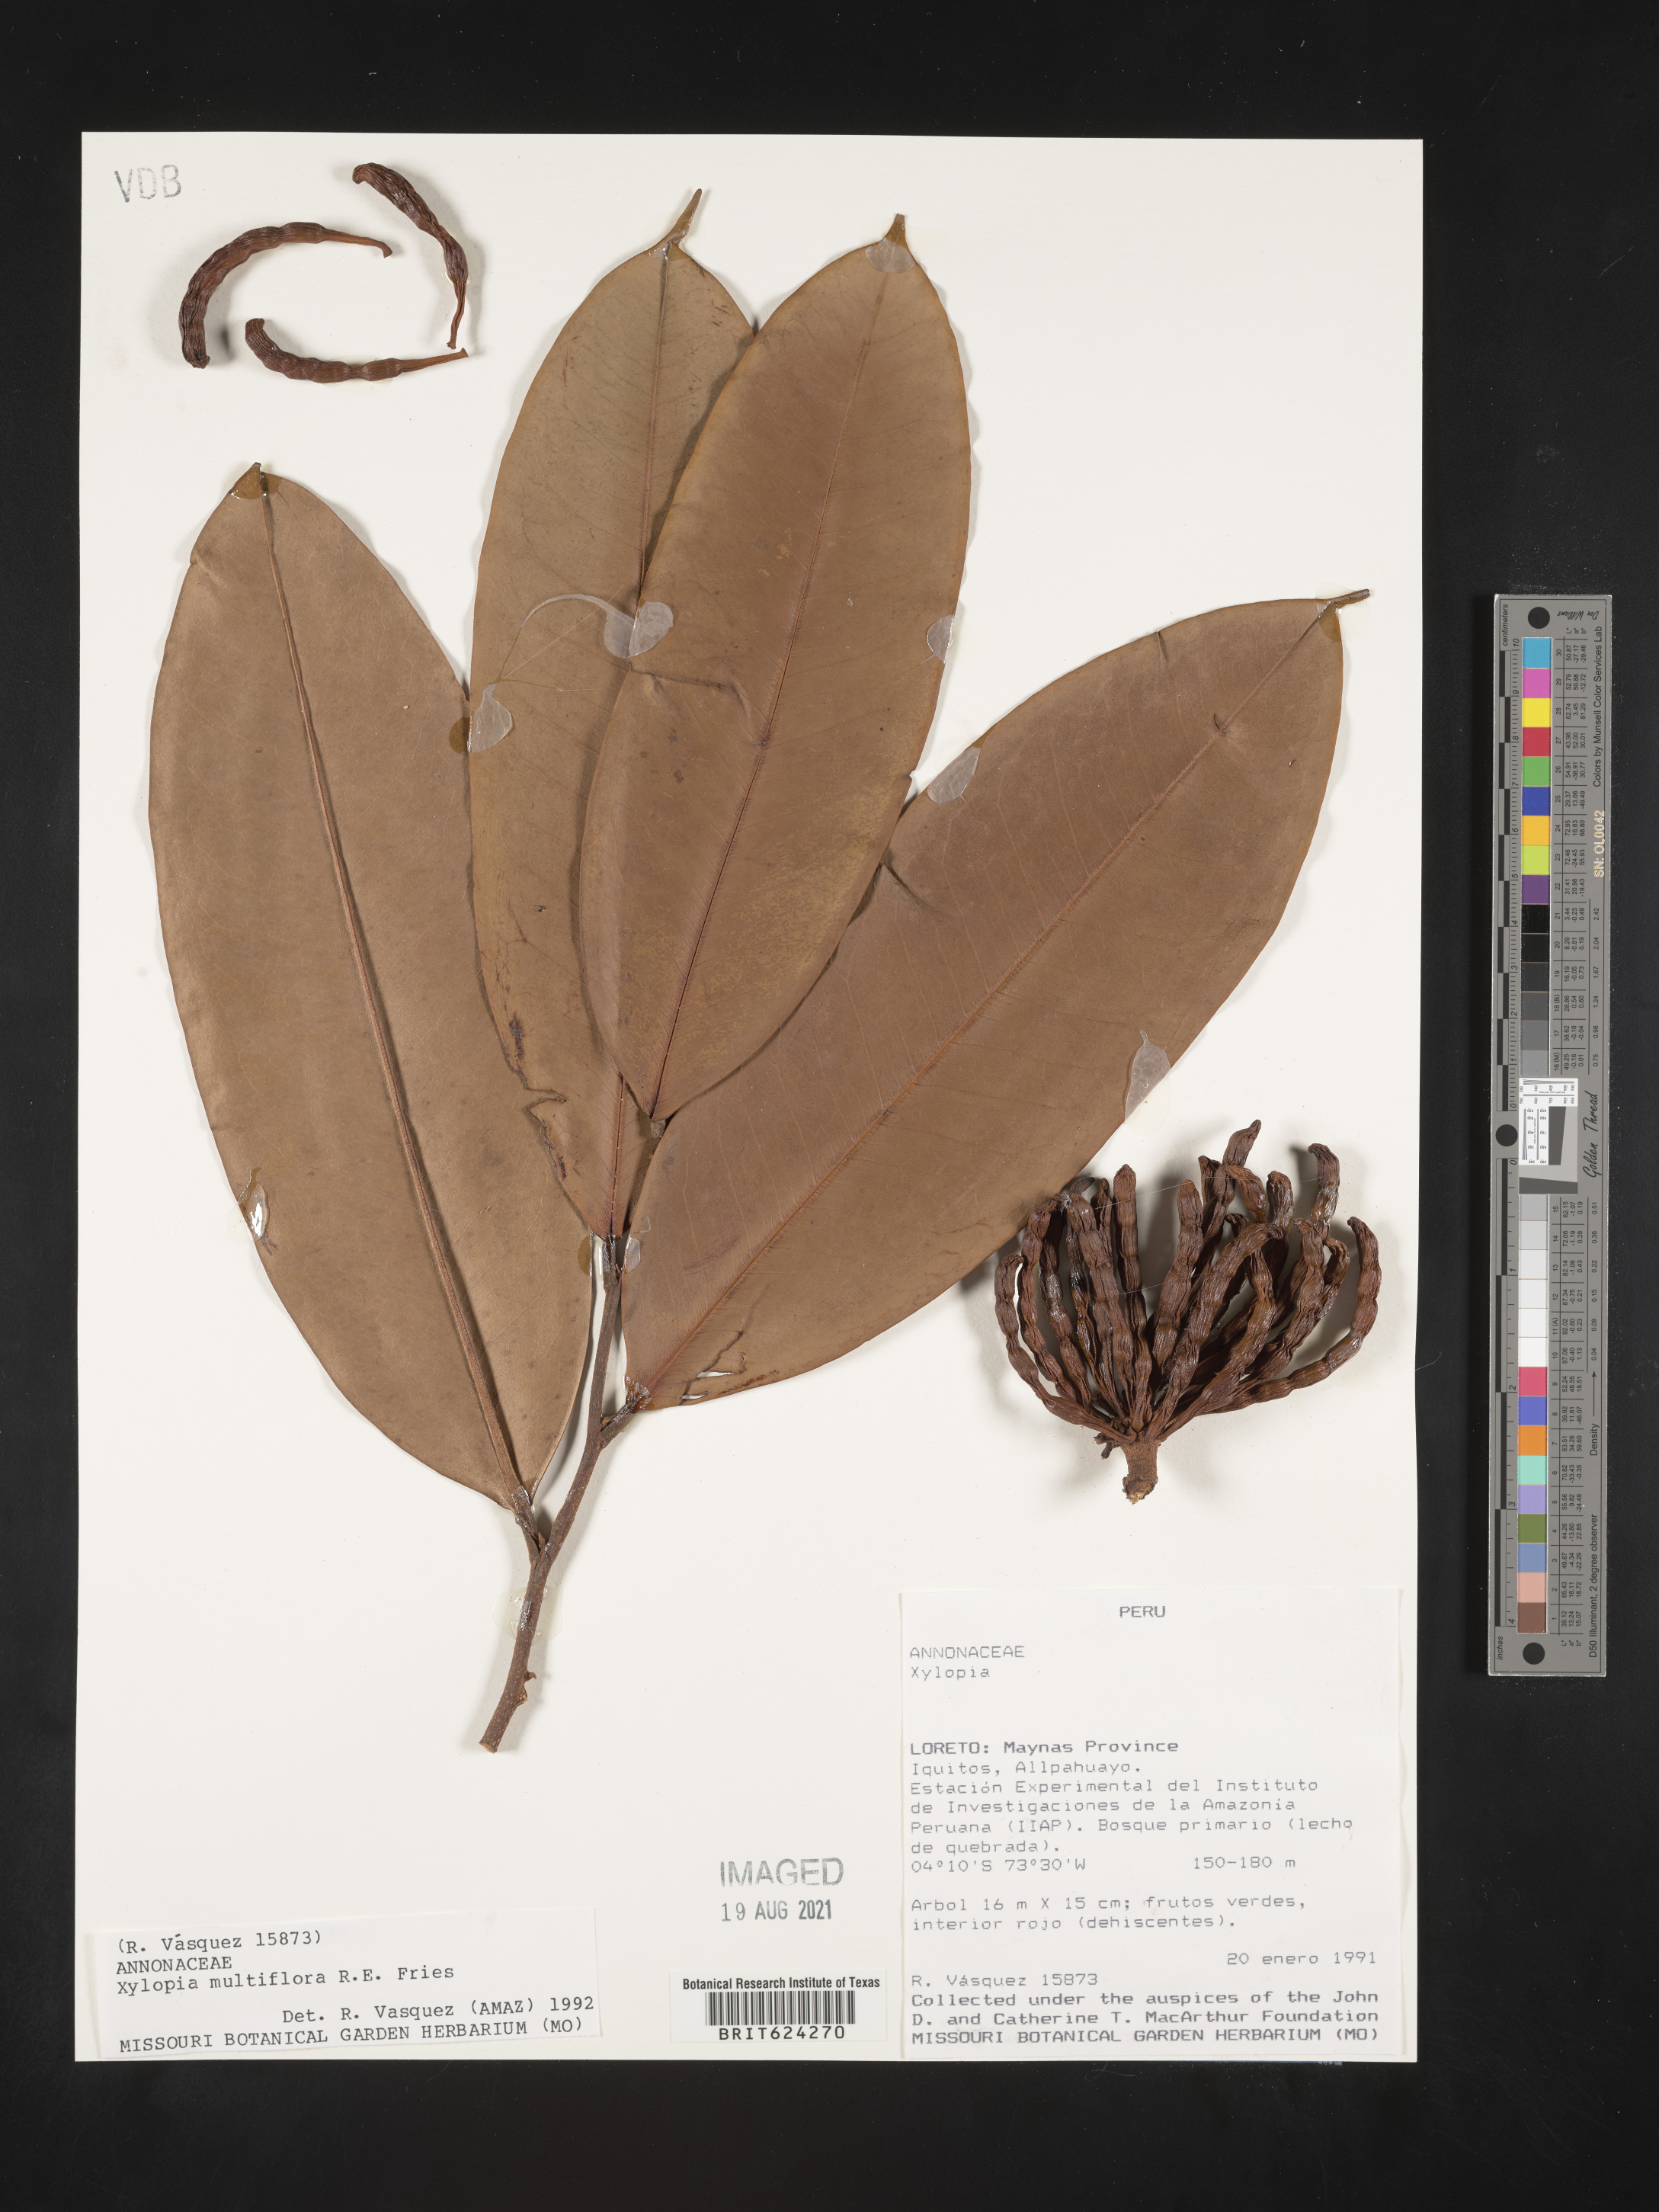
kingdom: Plantae
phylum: Tracheophyta
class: Magnoliopsida
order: Magnoliales
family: Annonaceae
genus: Xylopia
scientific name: Xylopia multiflora
